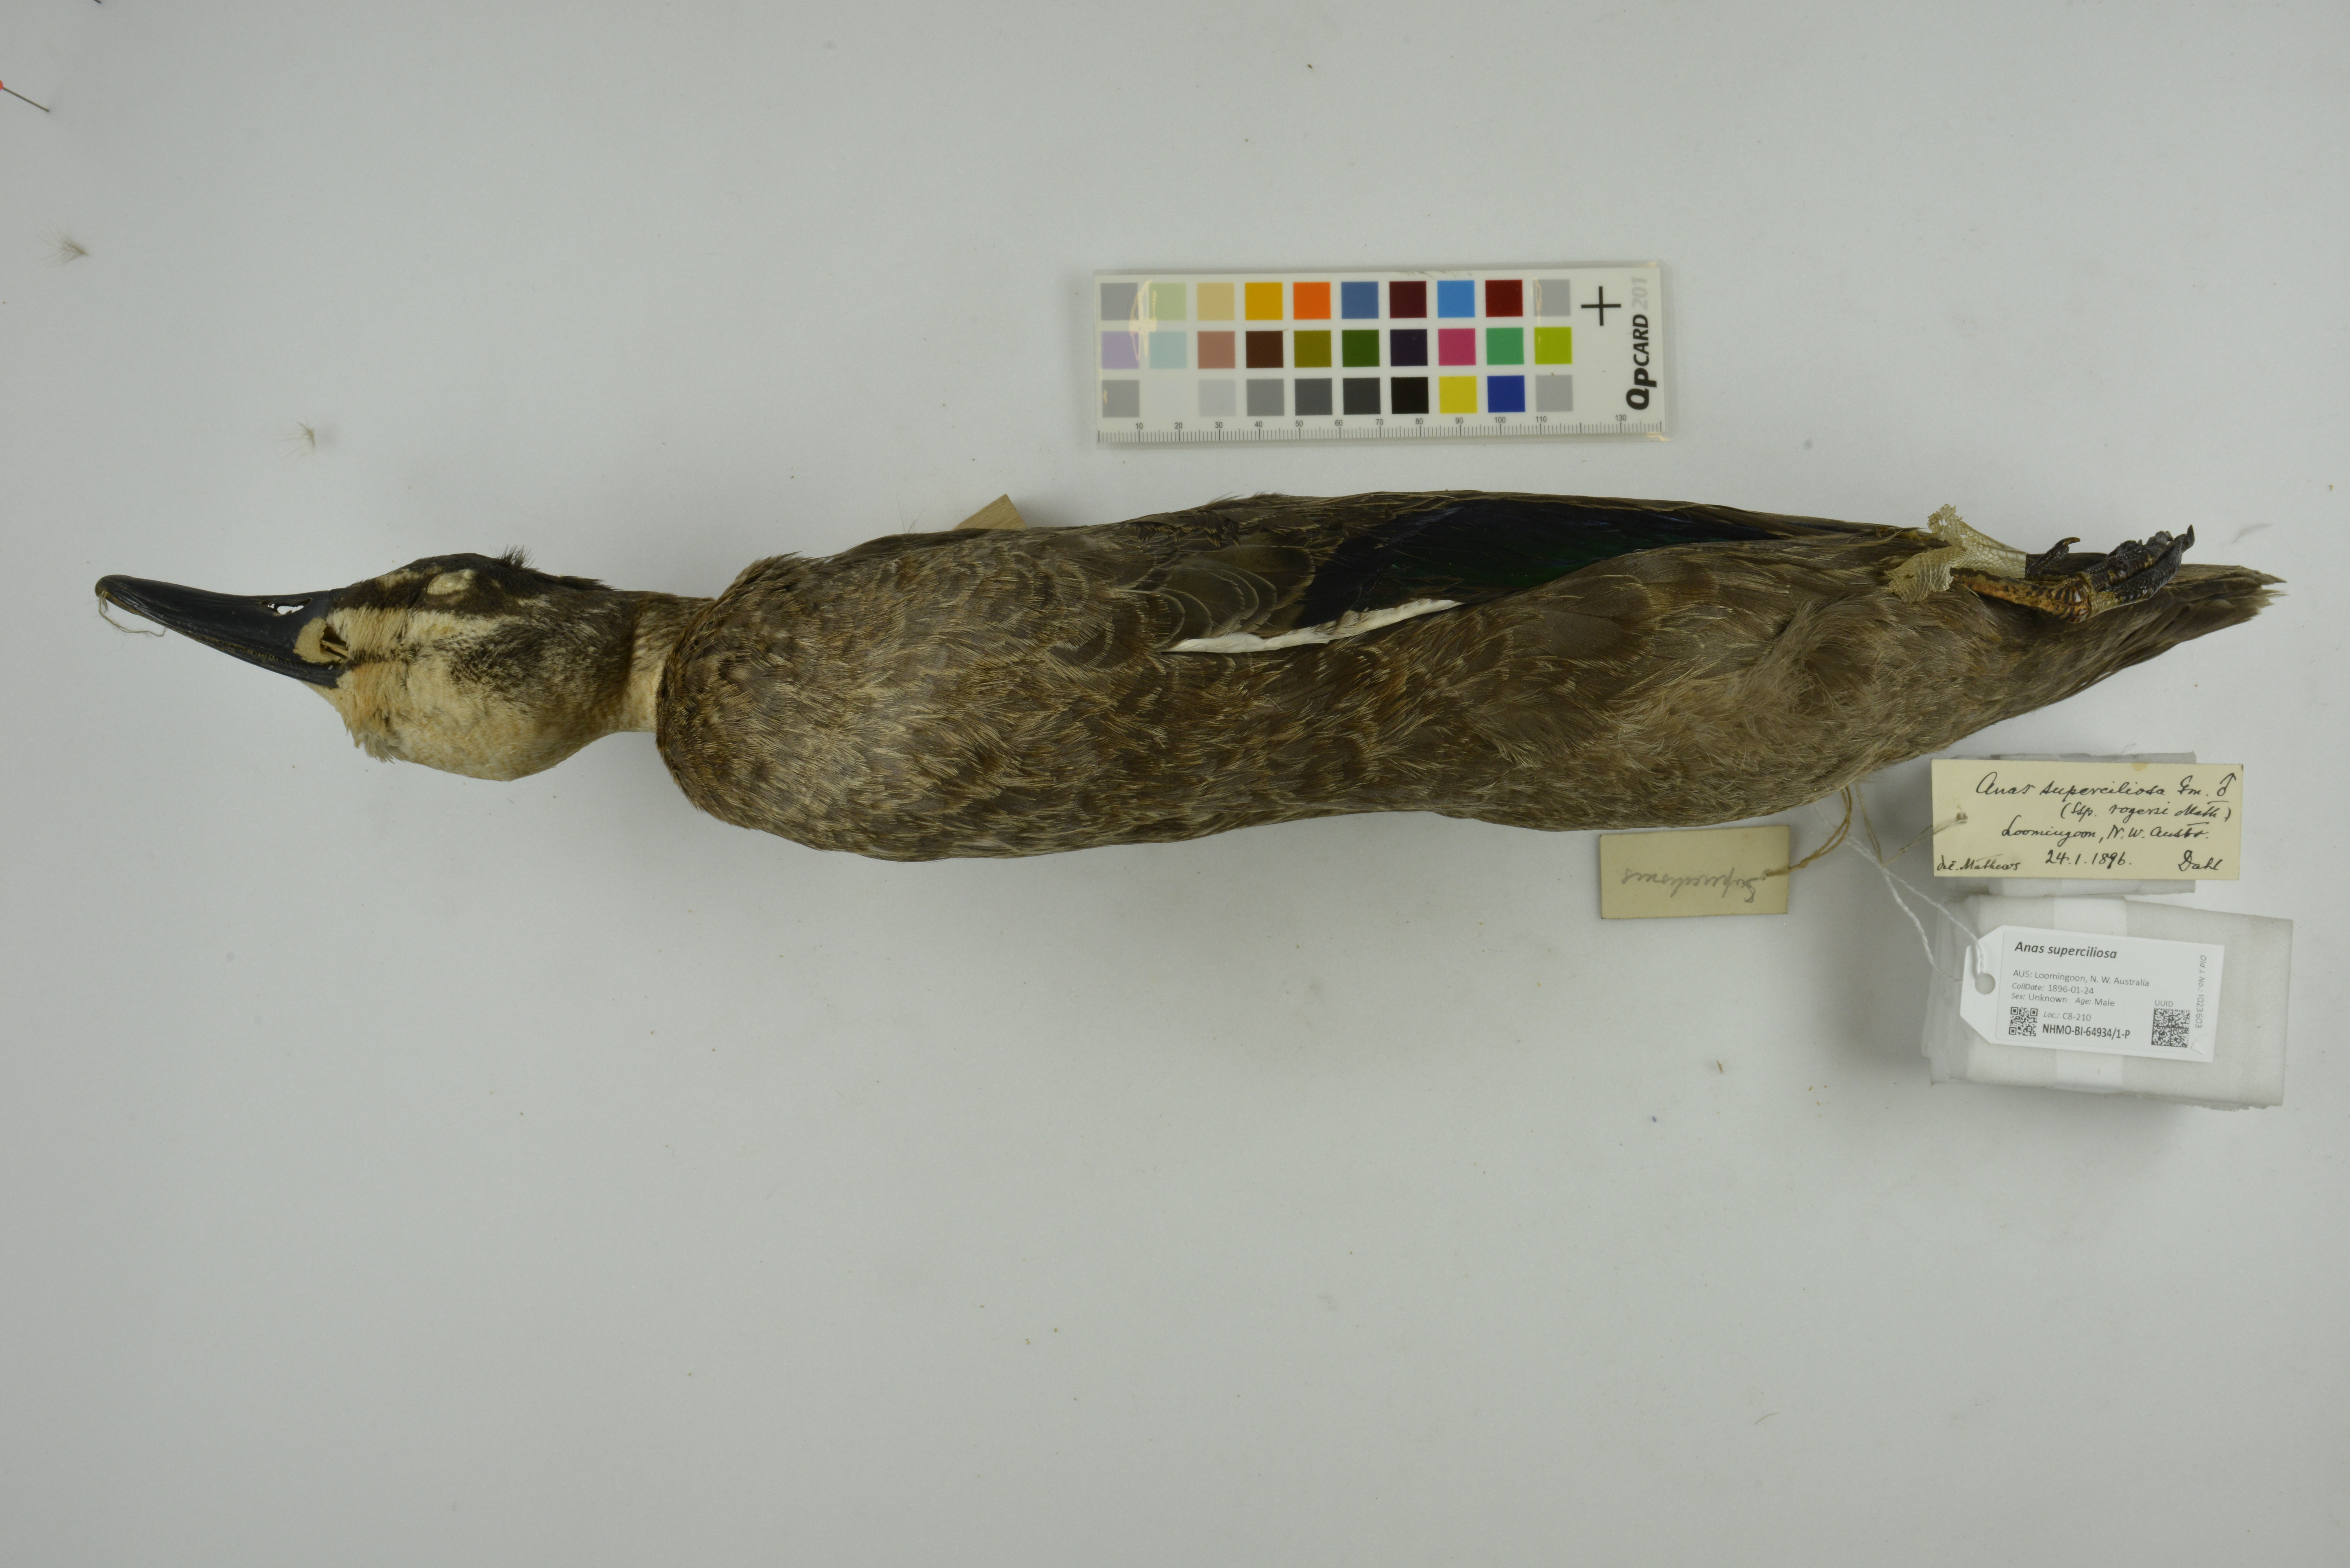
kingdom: Animalia
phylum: Chordata
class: Aves
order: Anseriformes
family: Anatidae
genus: Anas
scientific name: Anas superciliosa
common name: Pacific black duck
